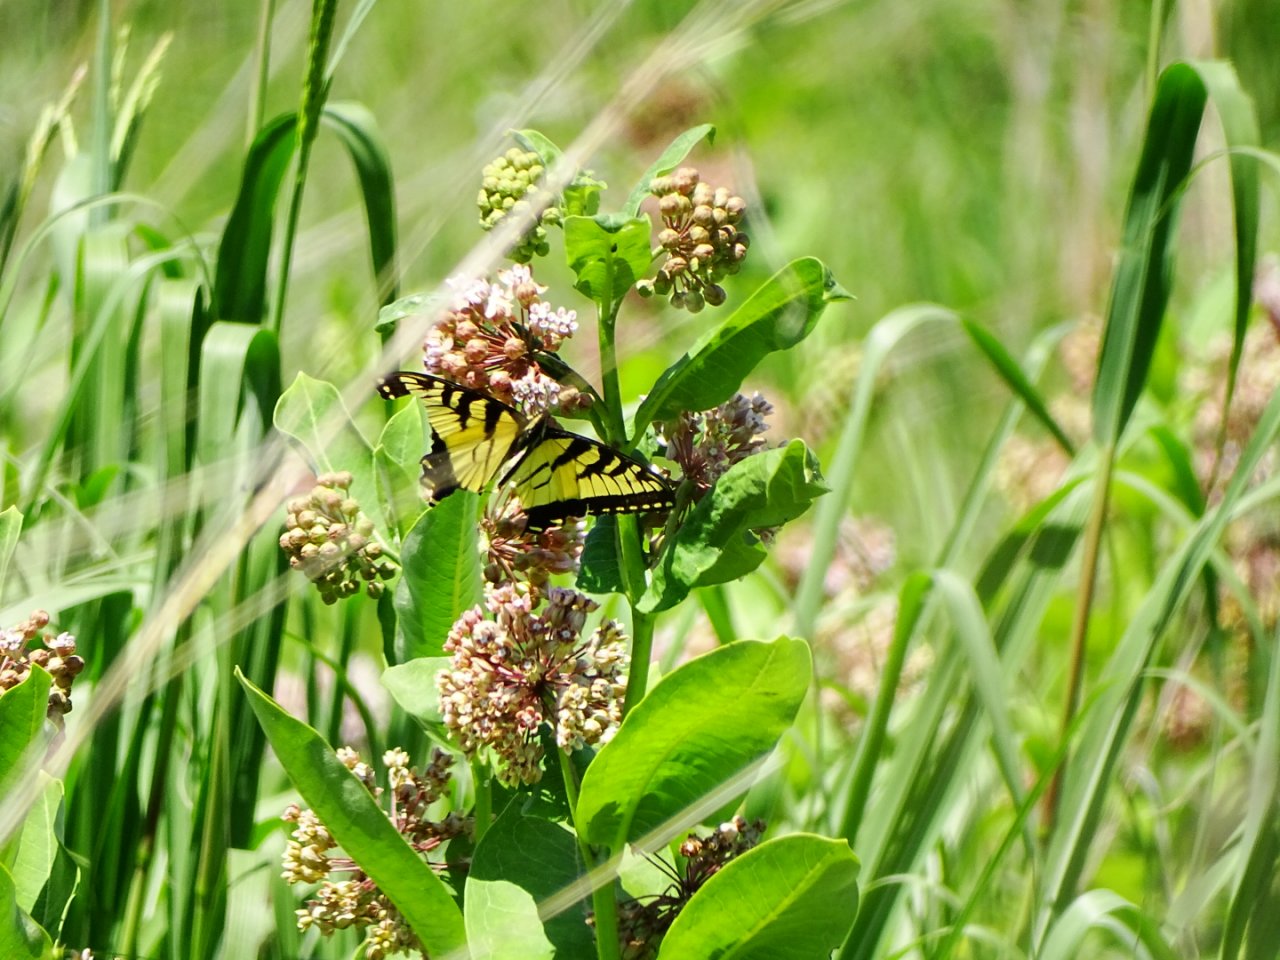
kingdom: Animalia
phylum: Arthropoda
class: Insecta
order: Lepidoptera
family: Papilionidae
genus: Pterourus
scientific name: Pterourus glaucus
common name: Eastern Tiger Swallowtail
